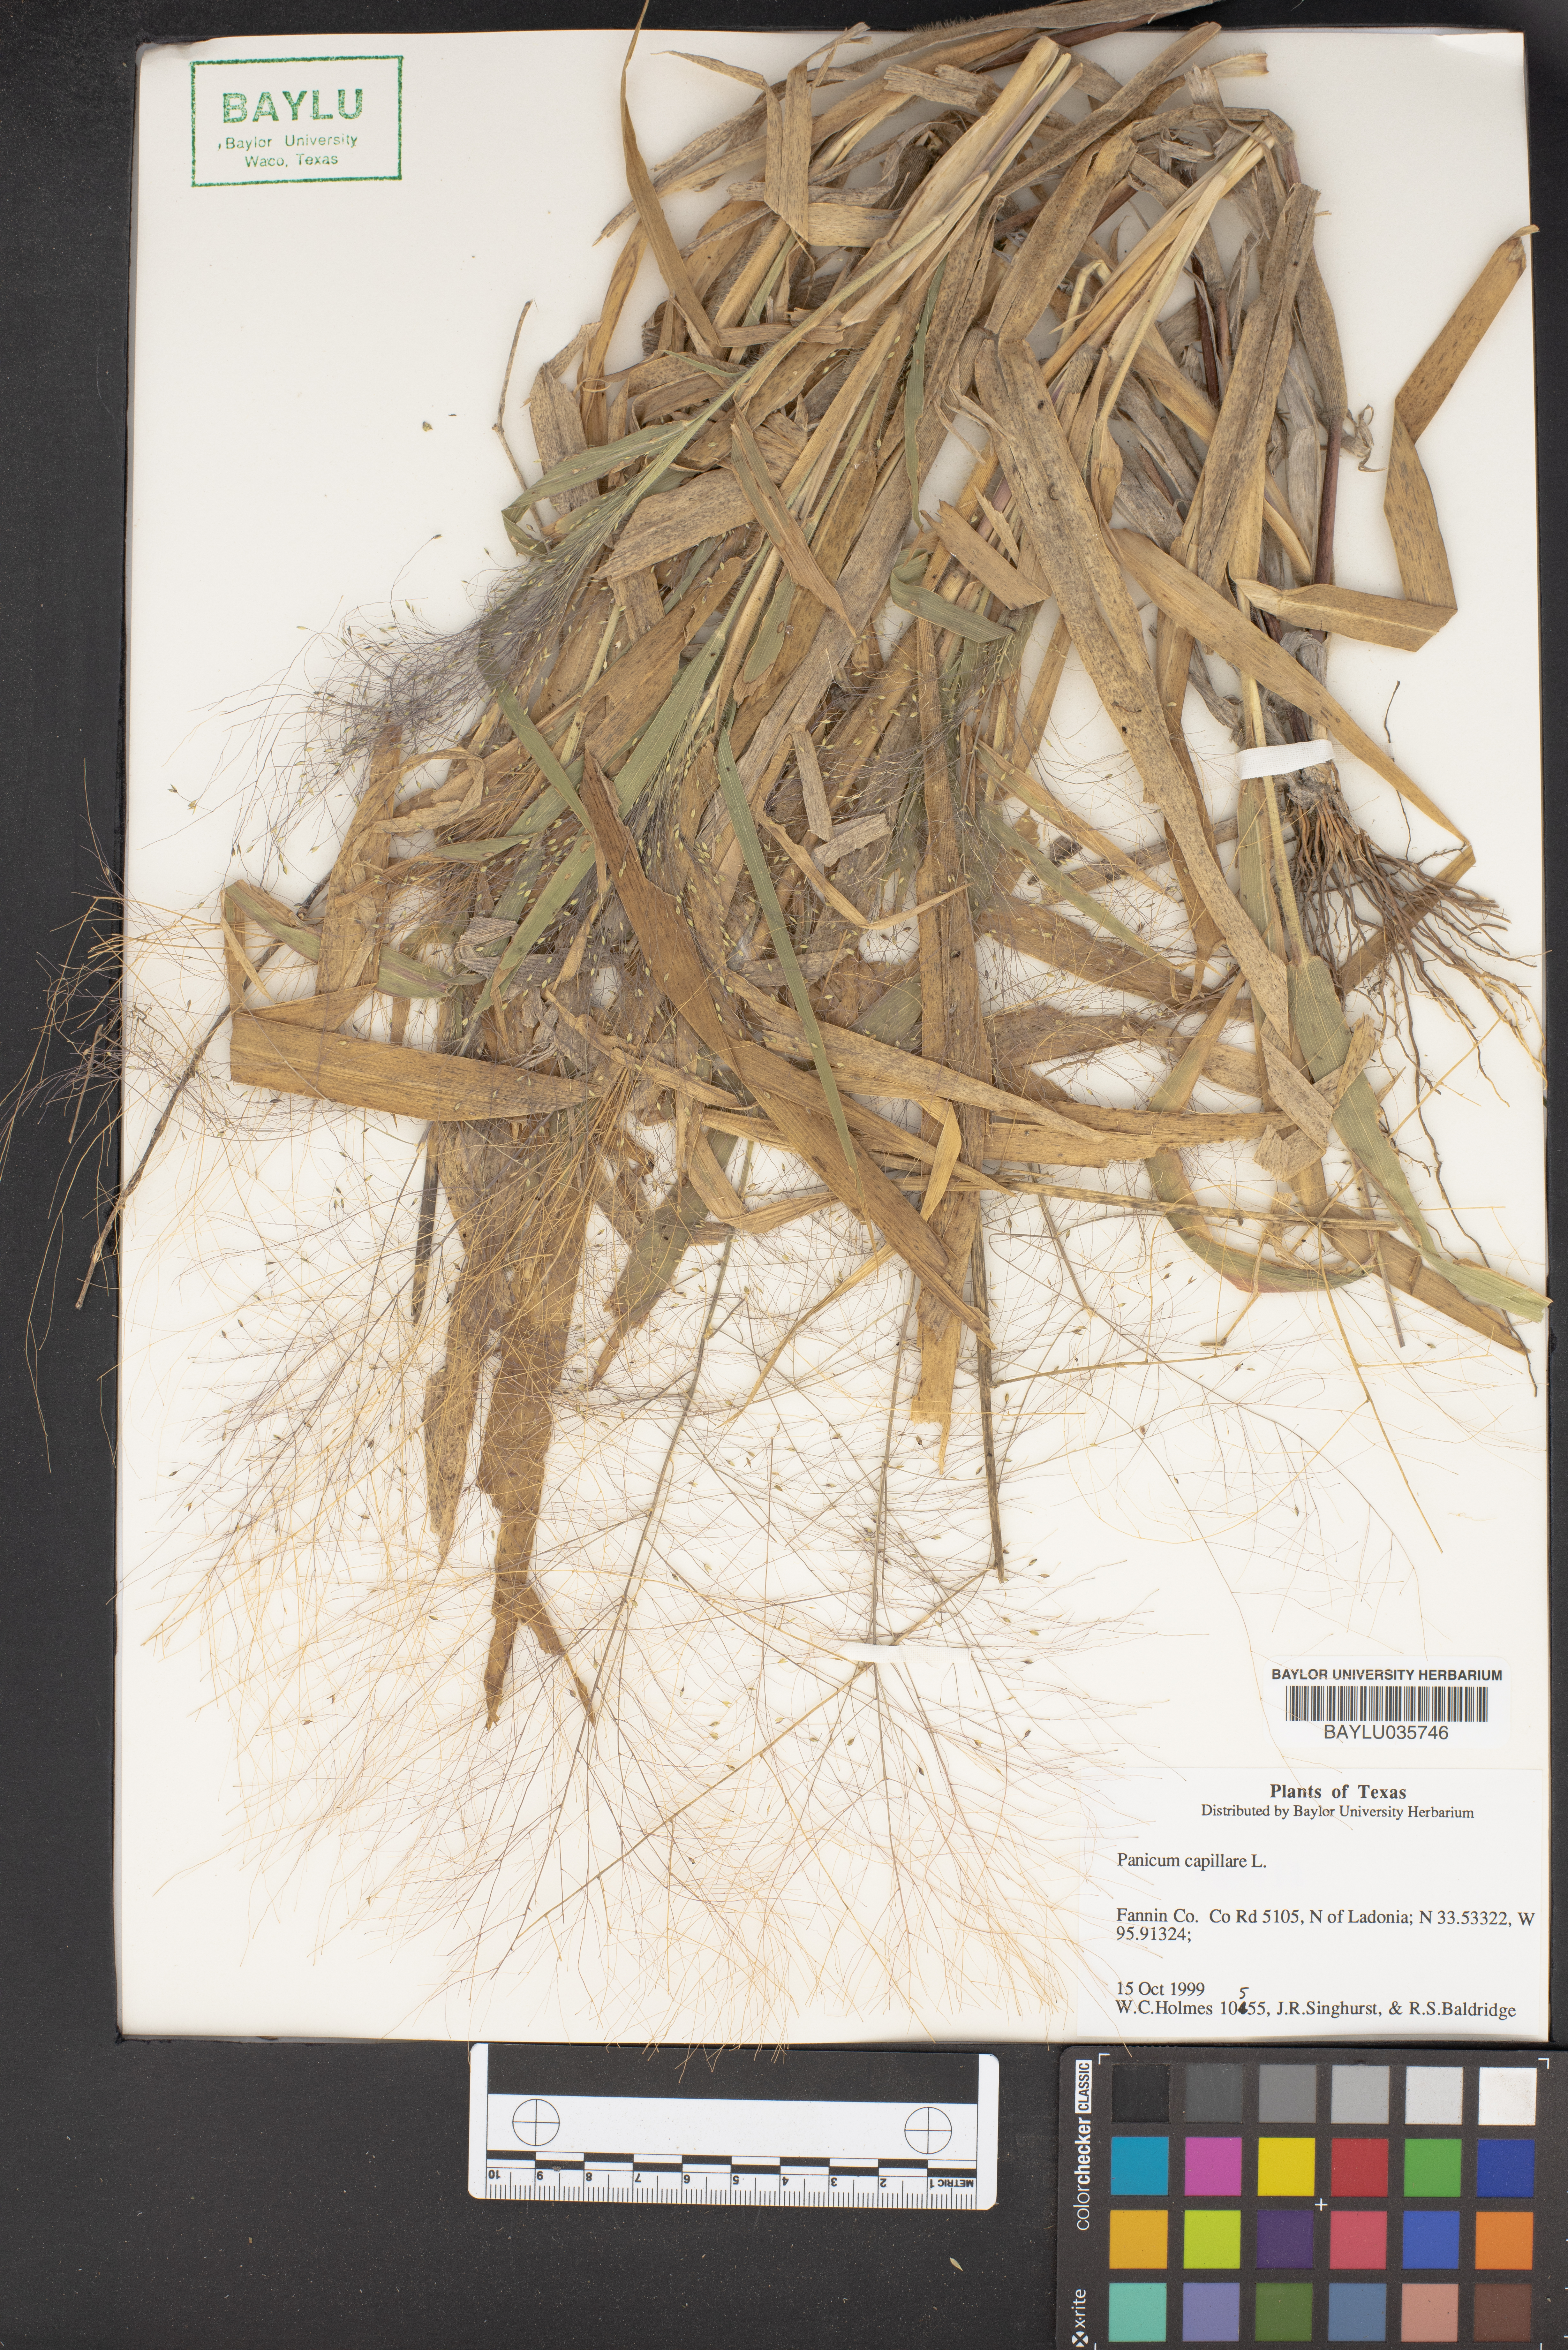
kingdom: Plantae
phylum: Tracheophyta
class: Liliopsida
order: Poales
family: Poaceae
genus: Panicum
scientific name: Panicum capillare
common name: Witch-grass
